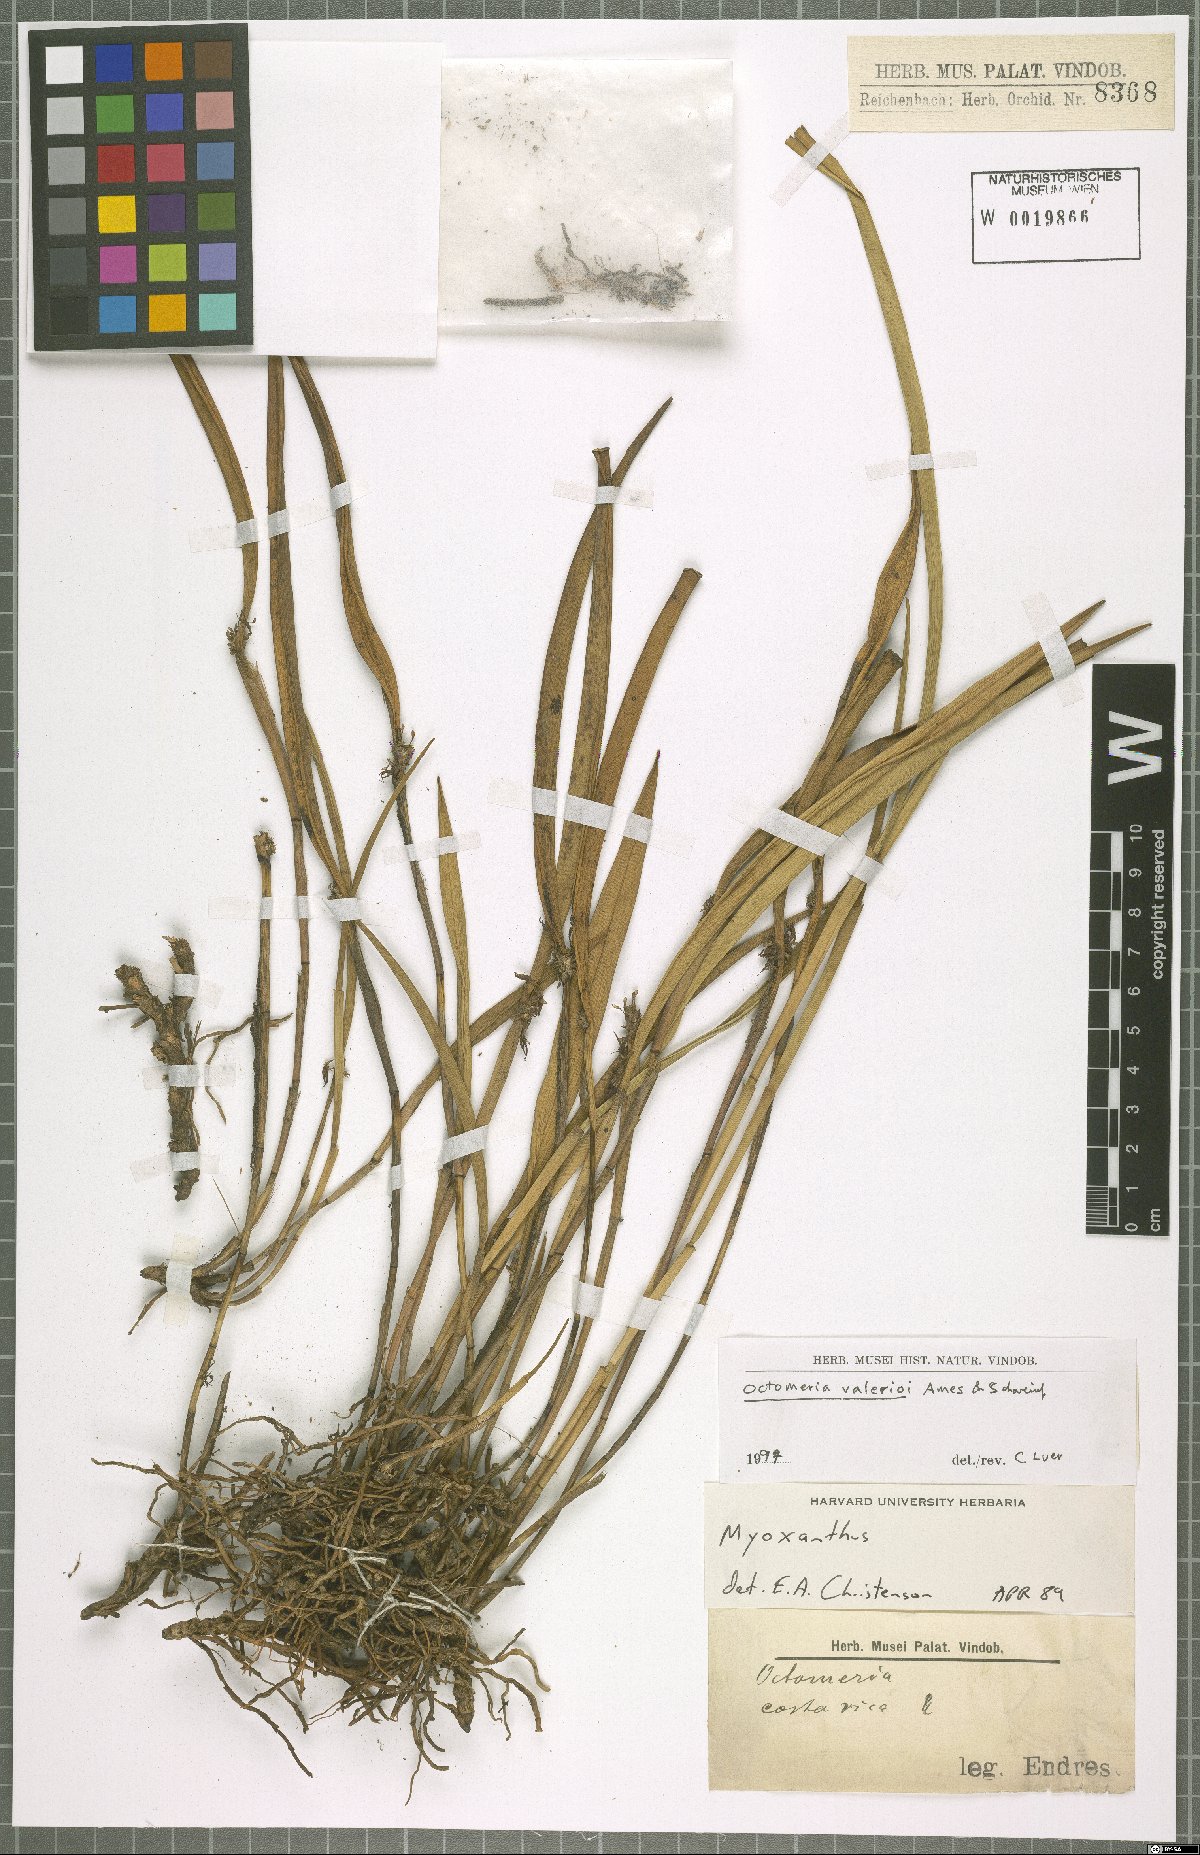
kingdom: Plantae
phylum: Tracheophyta
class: Liliopsida
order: Asparagales
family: Orchidaceae
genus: Octomeria
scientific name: Octomeria costaricensis
